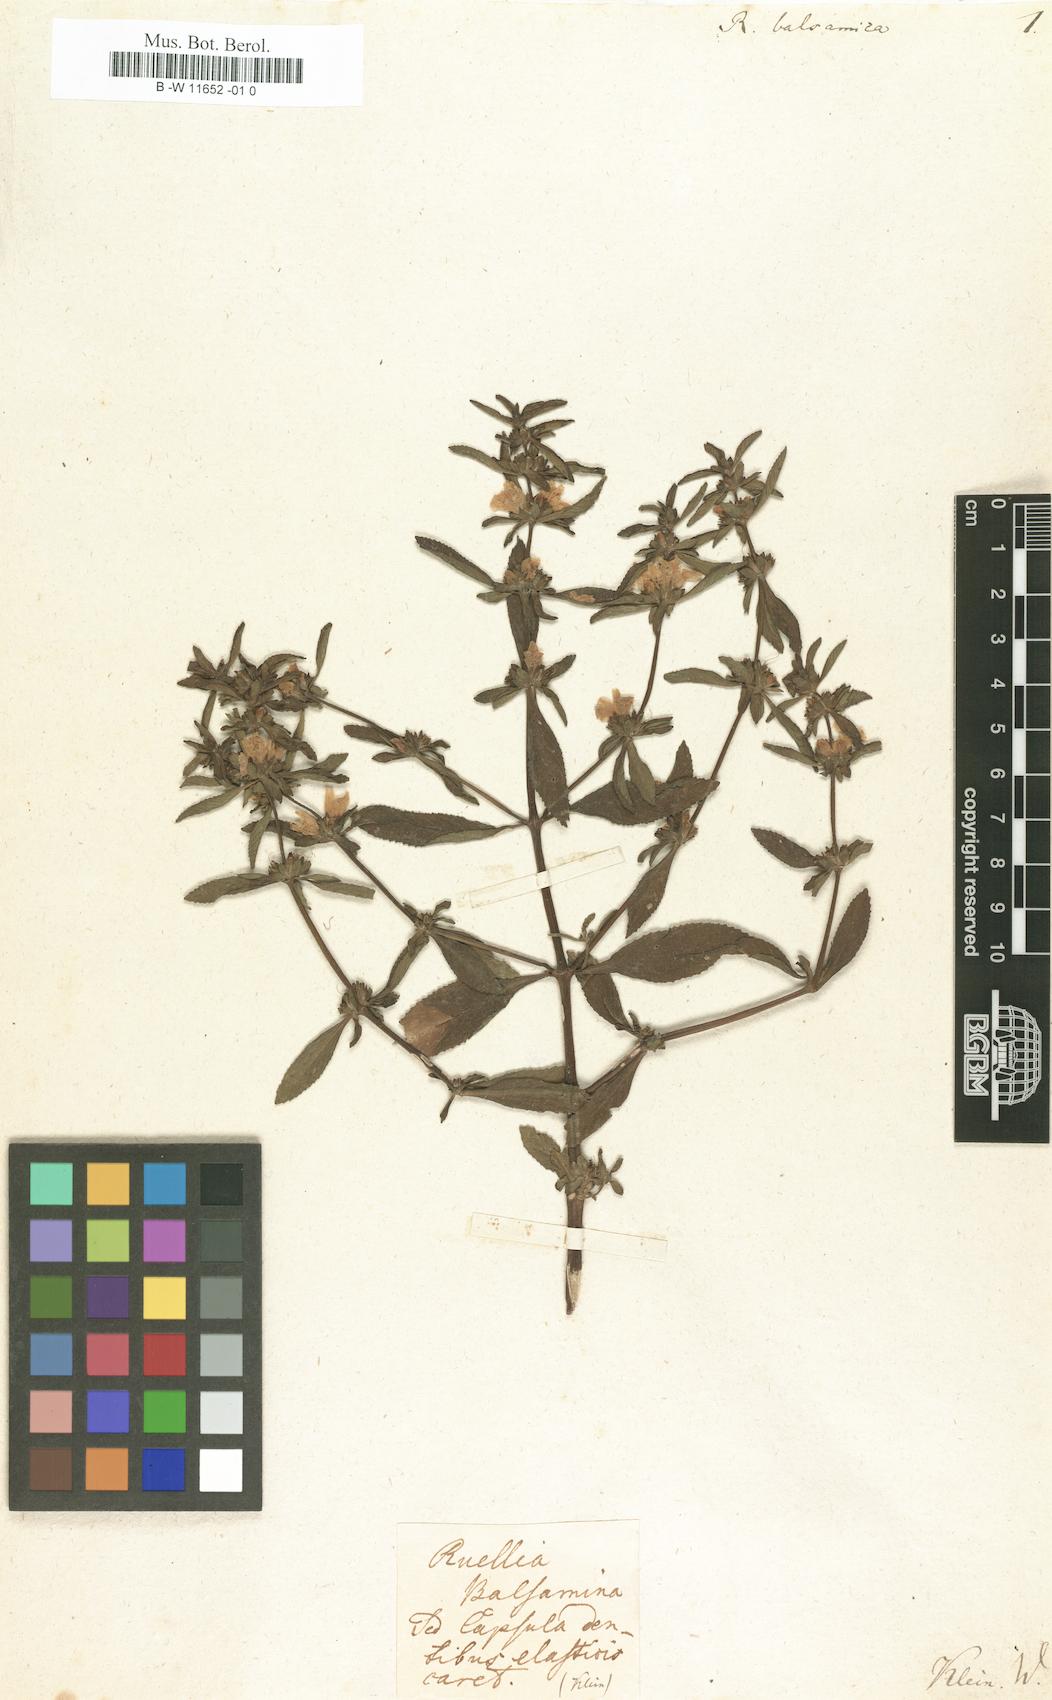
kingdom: Plantae
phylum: Tracheophyta
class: Magnoliopsida
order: Lamiales
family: Acanthaceae
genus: Hygrophila
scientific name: Hygrophila balsamica
